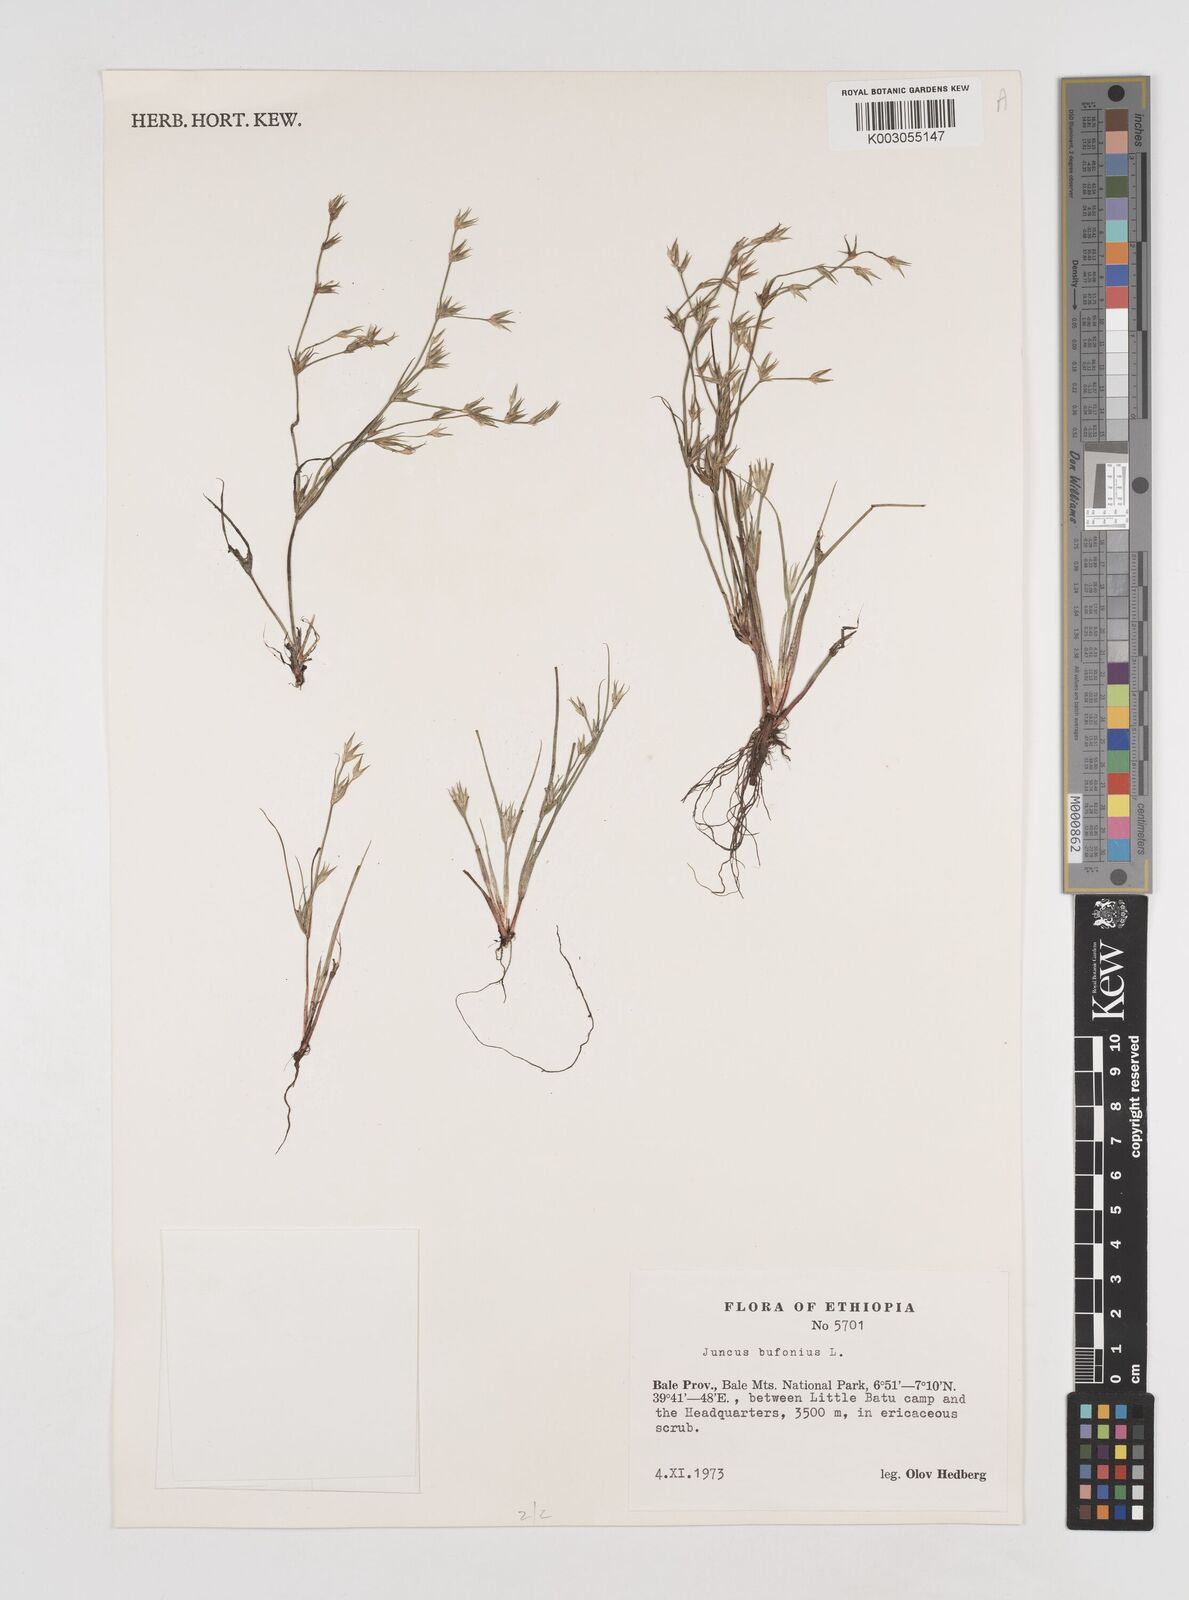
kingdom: Plantae
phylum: Tracheophyta
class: Liliopsida
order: Poales
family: Juncaceae
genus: Juncus
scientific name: Juncus bufonius
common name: Toad rush
